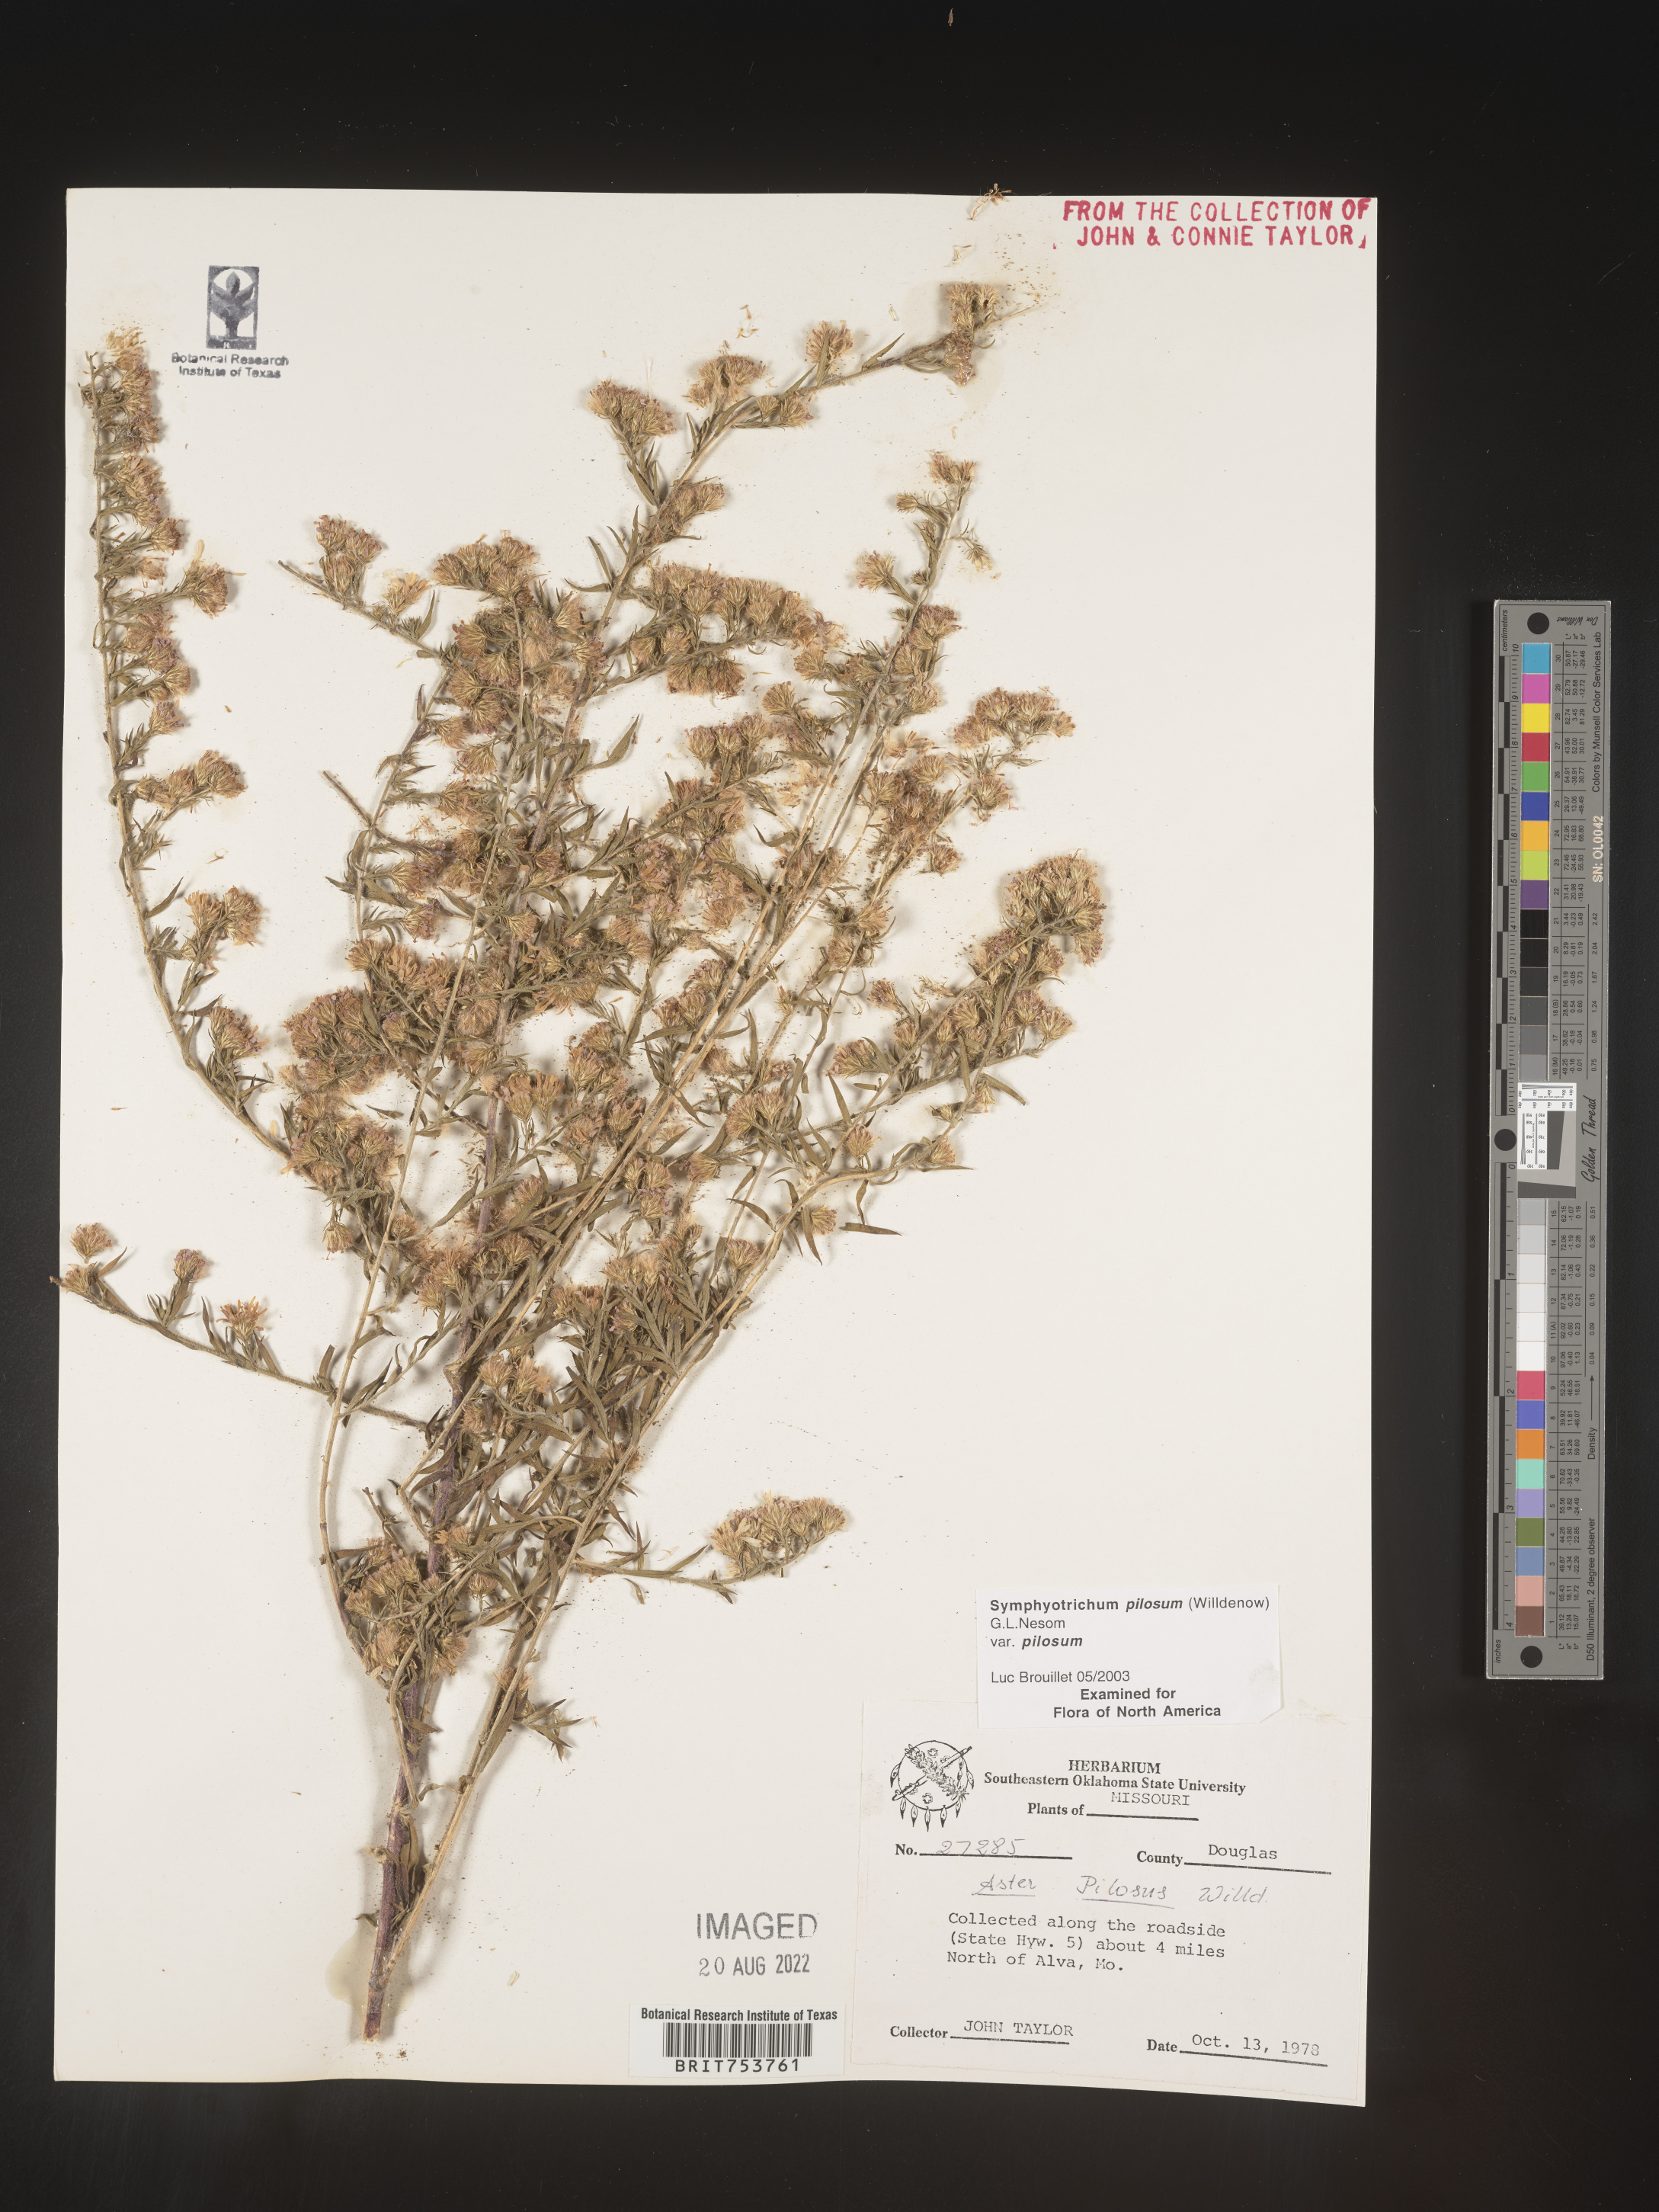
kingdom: Plantae
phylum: Tracheophyta
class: Magnoliopsida
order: Asterales
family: Asteraceae
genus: Symphyotrichum
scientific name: Symphyotrichum pilosum
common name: Awl aster
